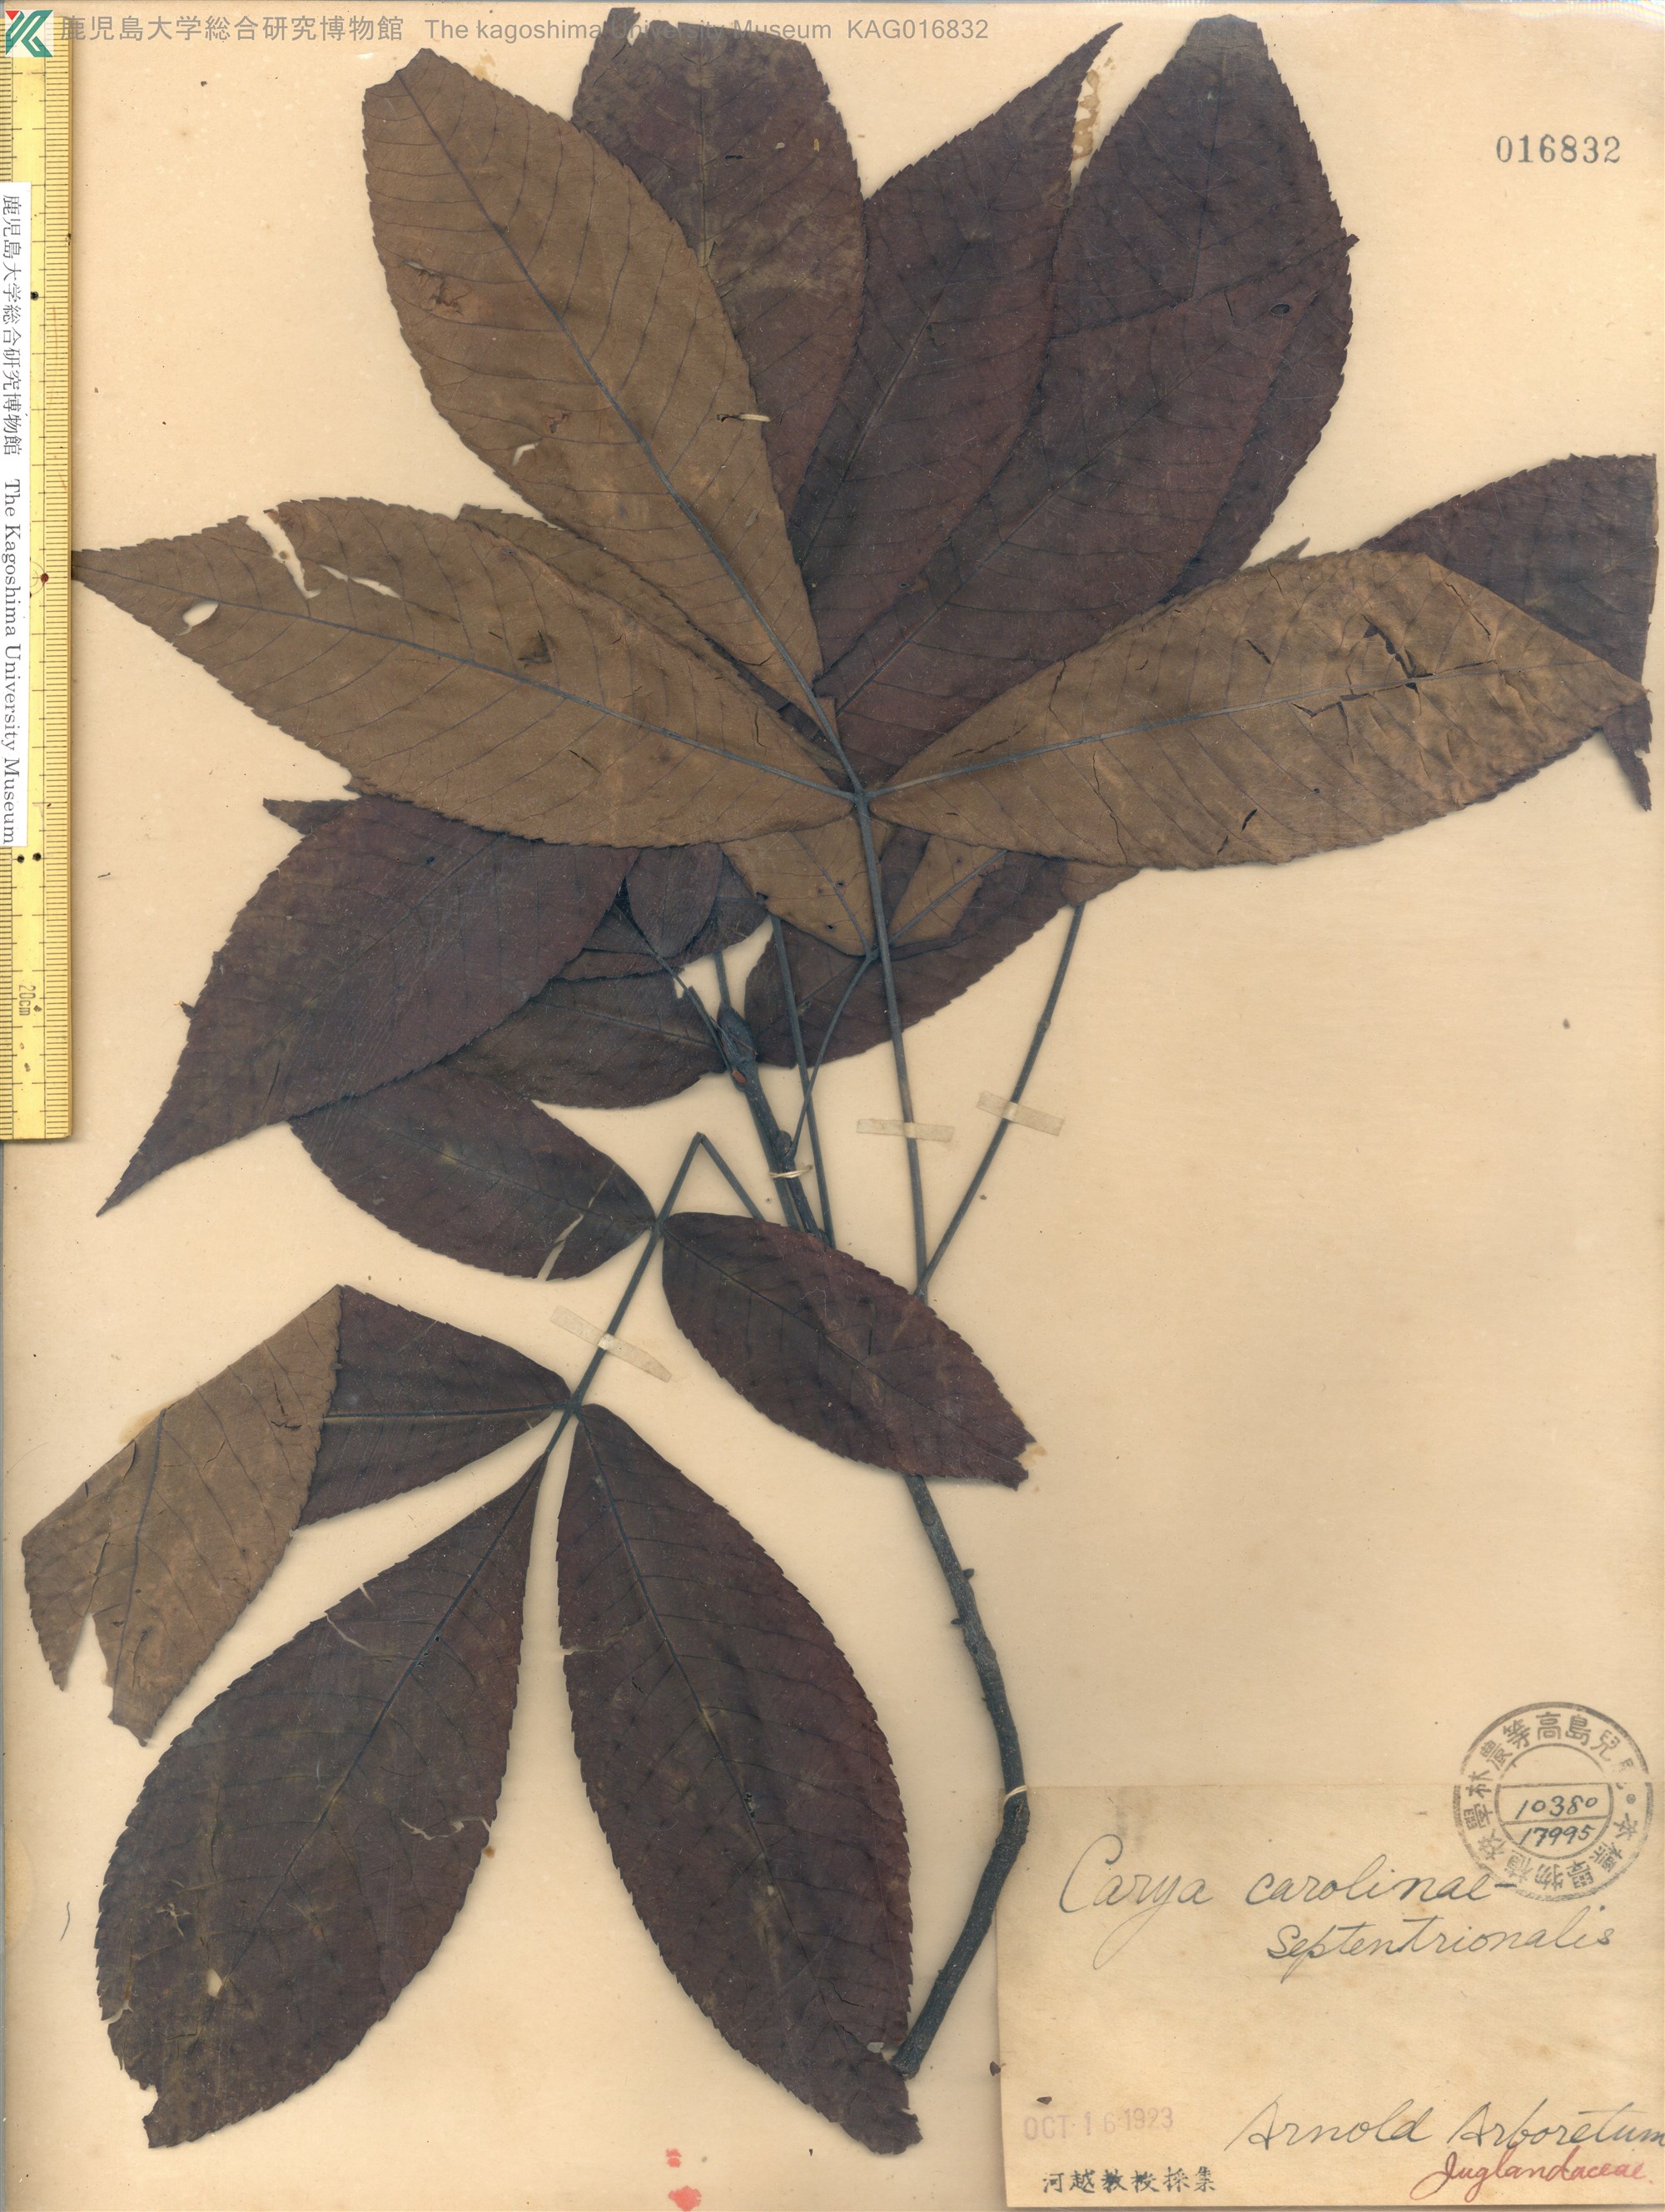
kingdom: Plantae
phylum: Tracheophyta
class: Magnoliopsida
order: Fagales
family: Juglandaceae
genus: Carya
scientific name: Carya
